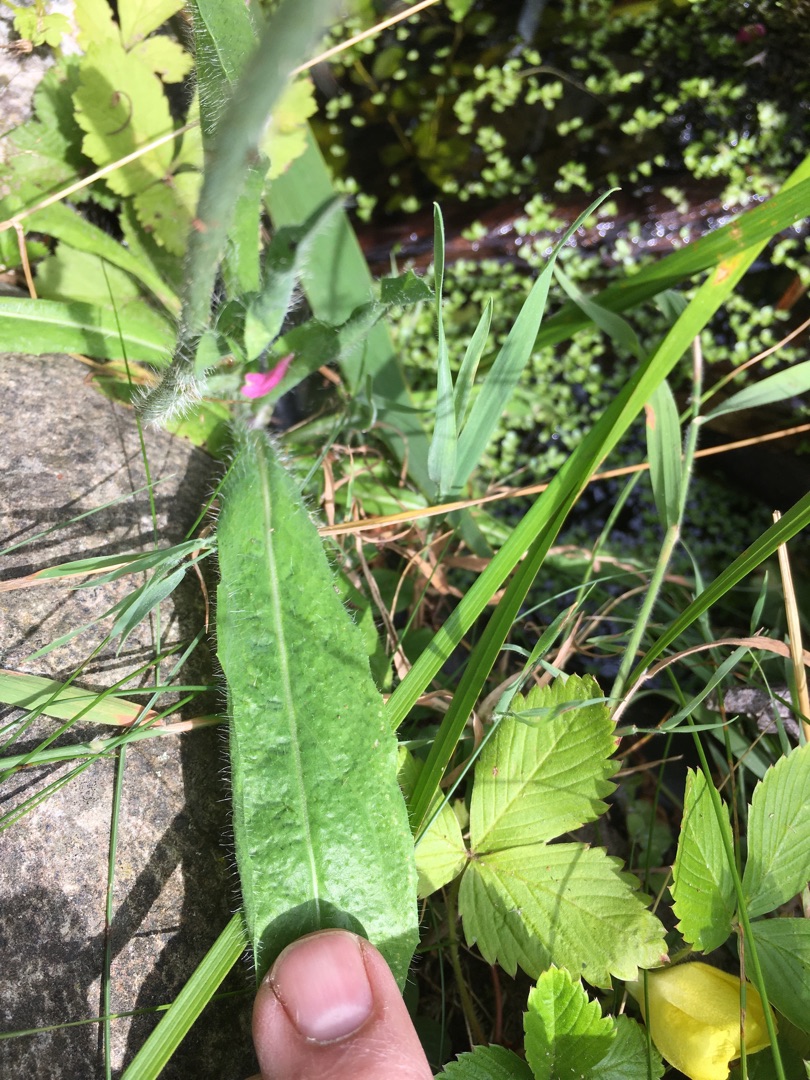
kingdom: Plantae
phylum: Tracheophyta
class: Magnoliopsida
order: Asterales
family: Asteraceae
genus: Pilosella
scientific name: Pilosella aurantiaca
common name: Pomerans-høgeurt
